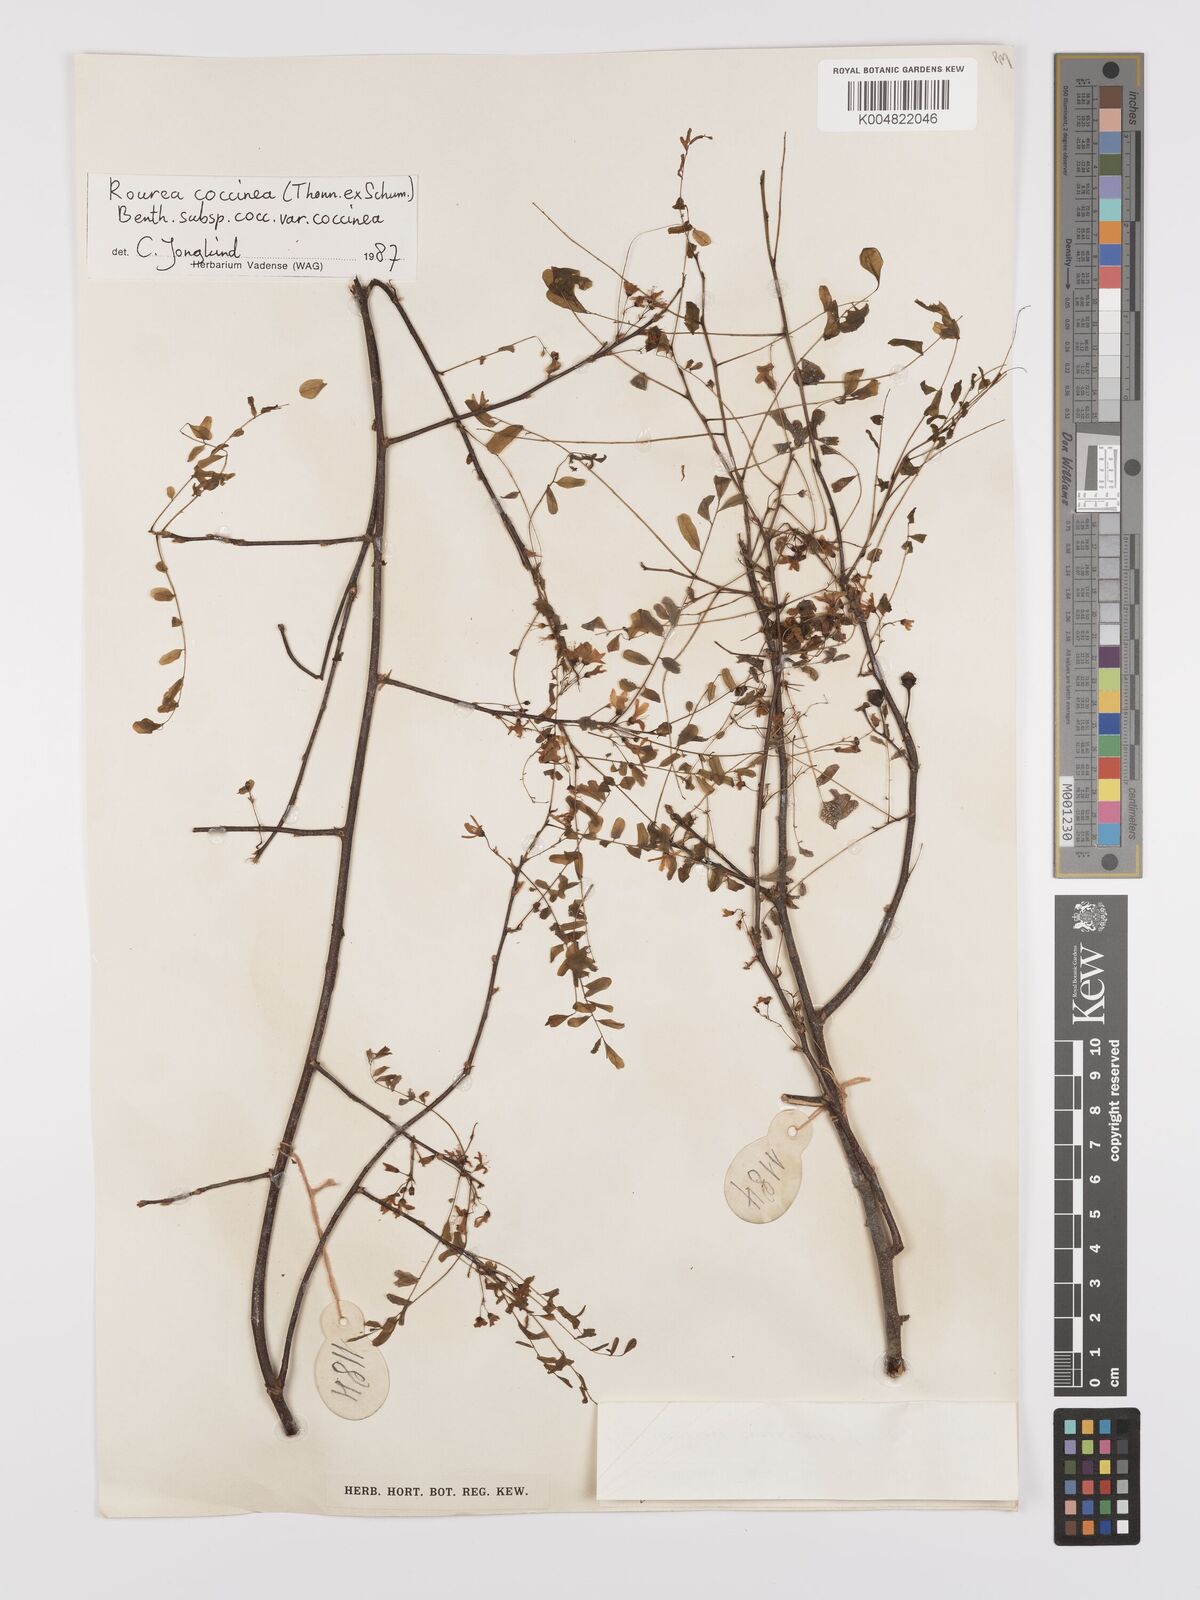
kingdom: Plantae
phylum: Tracheophyta
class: Magnoliopsida
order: Oxalidales
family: Connaraceae
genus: Rourea
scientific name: Rourea coccinea
